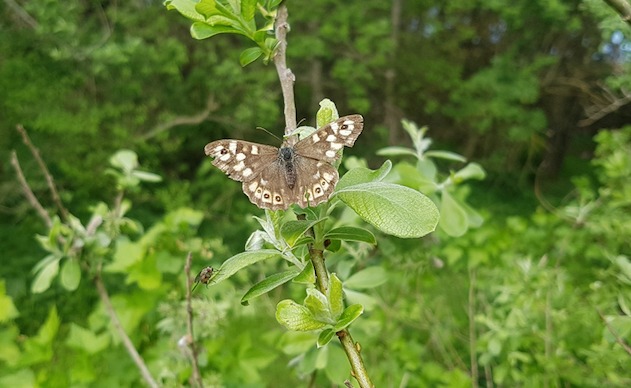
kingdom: Animalia
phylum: Arthropoda
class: Insecta
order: Lepidoptera
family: Nymphalidae
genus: Pararge
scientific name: Pararge aegeria
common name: Skovrandøje
